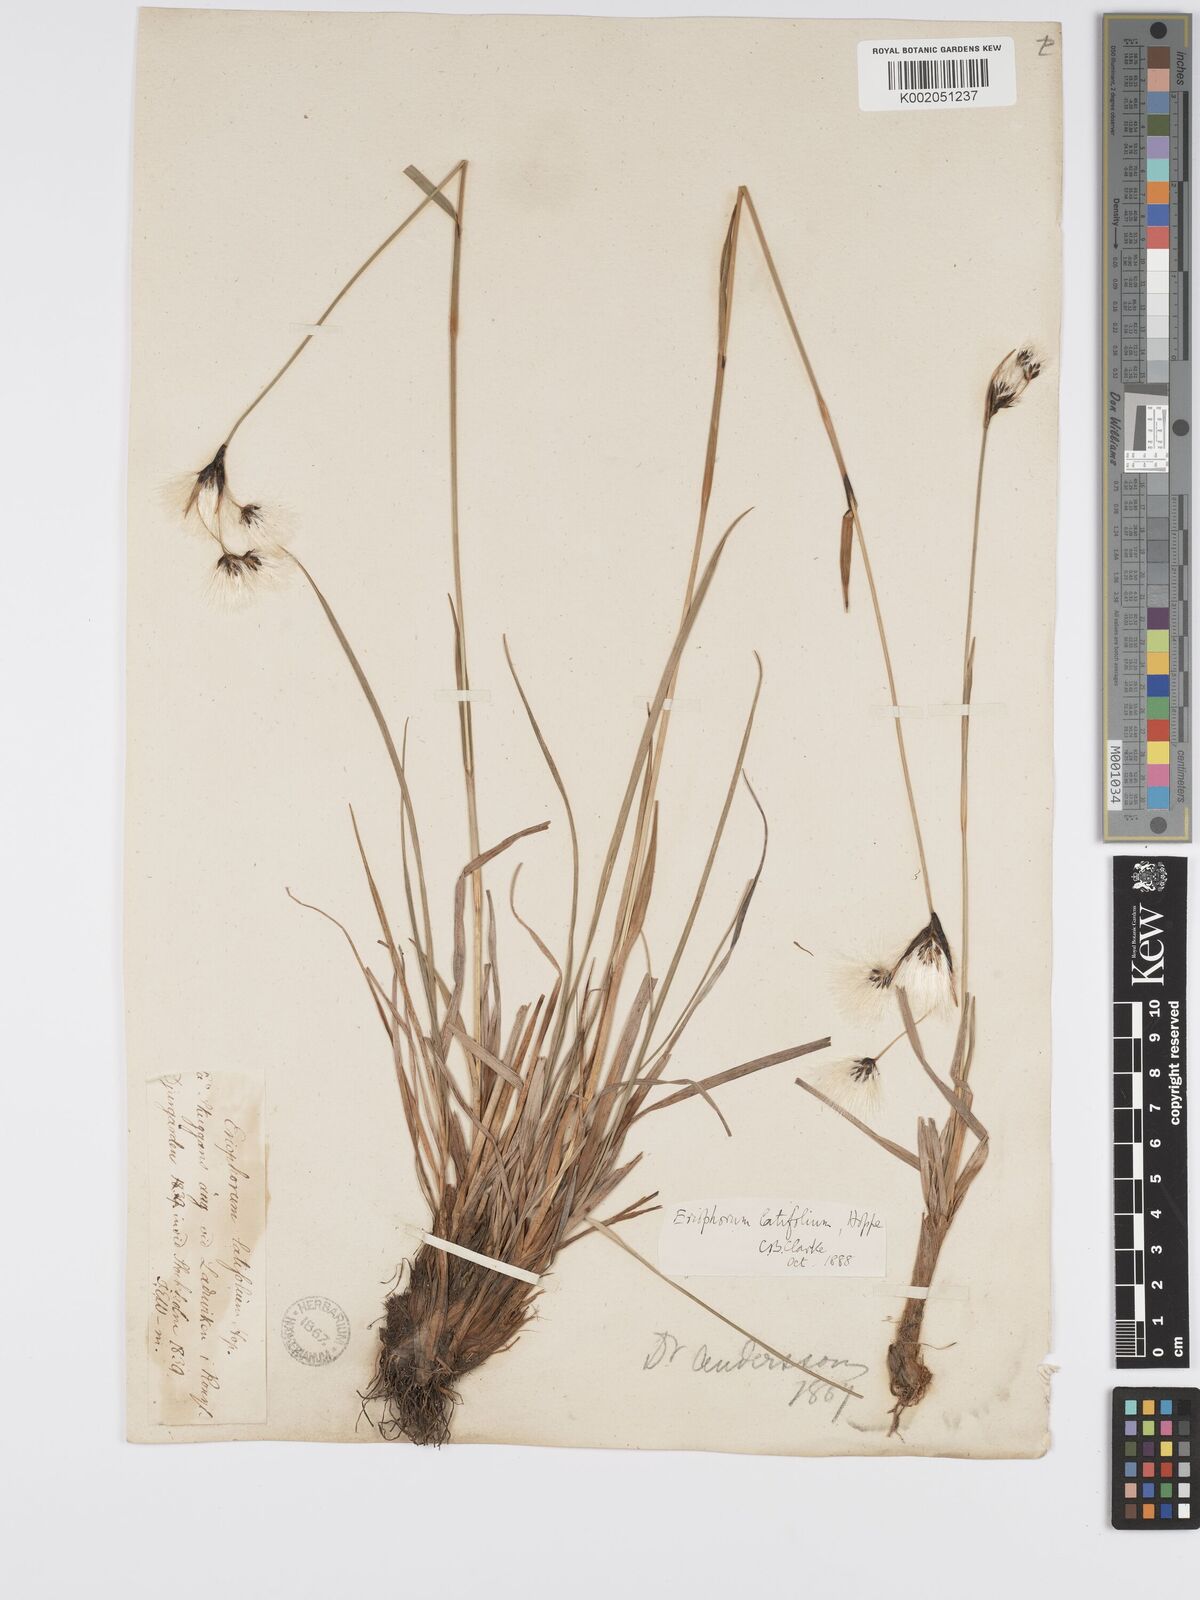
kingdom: Plantae
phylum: Tracheophyta
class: Liliopsida
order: Poales
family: Cyperaceae
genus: Eriophorum
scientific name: Eriophorum latifolium
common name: Broad-leaved cottongrass
